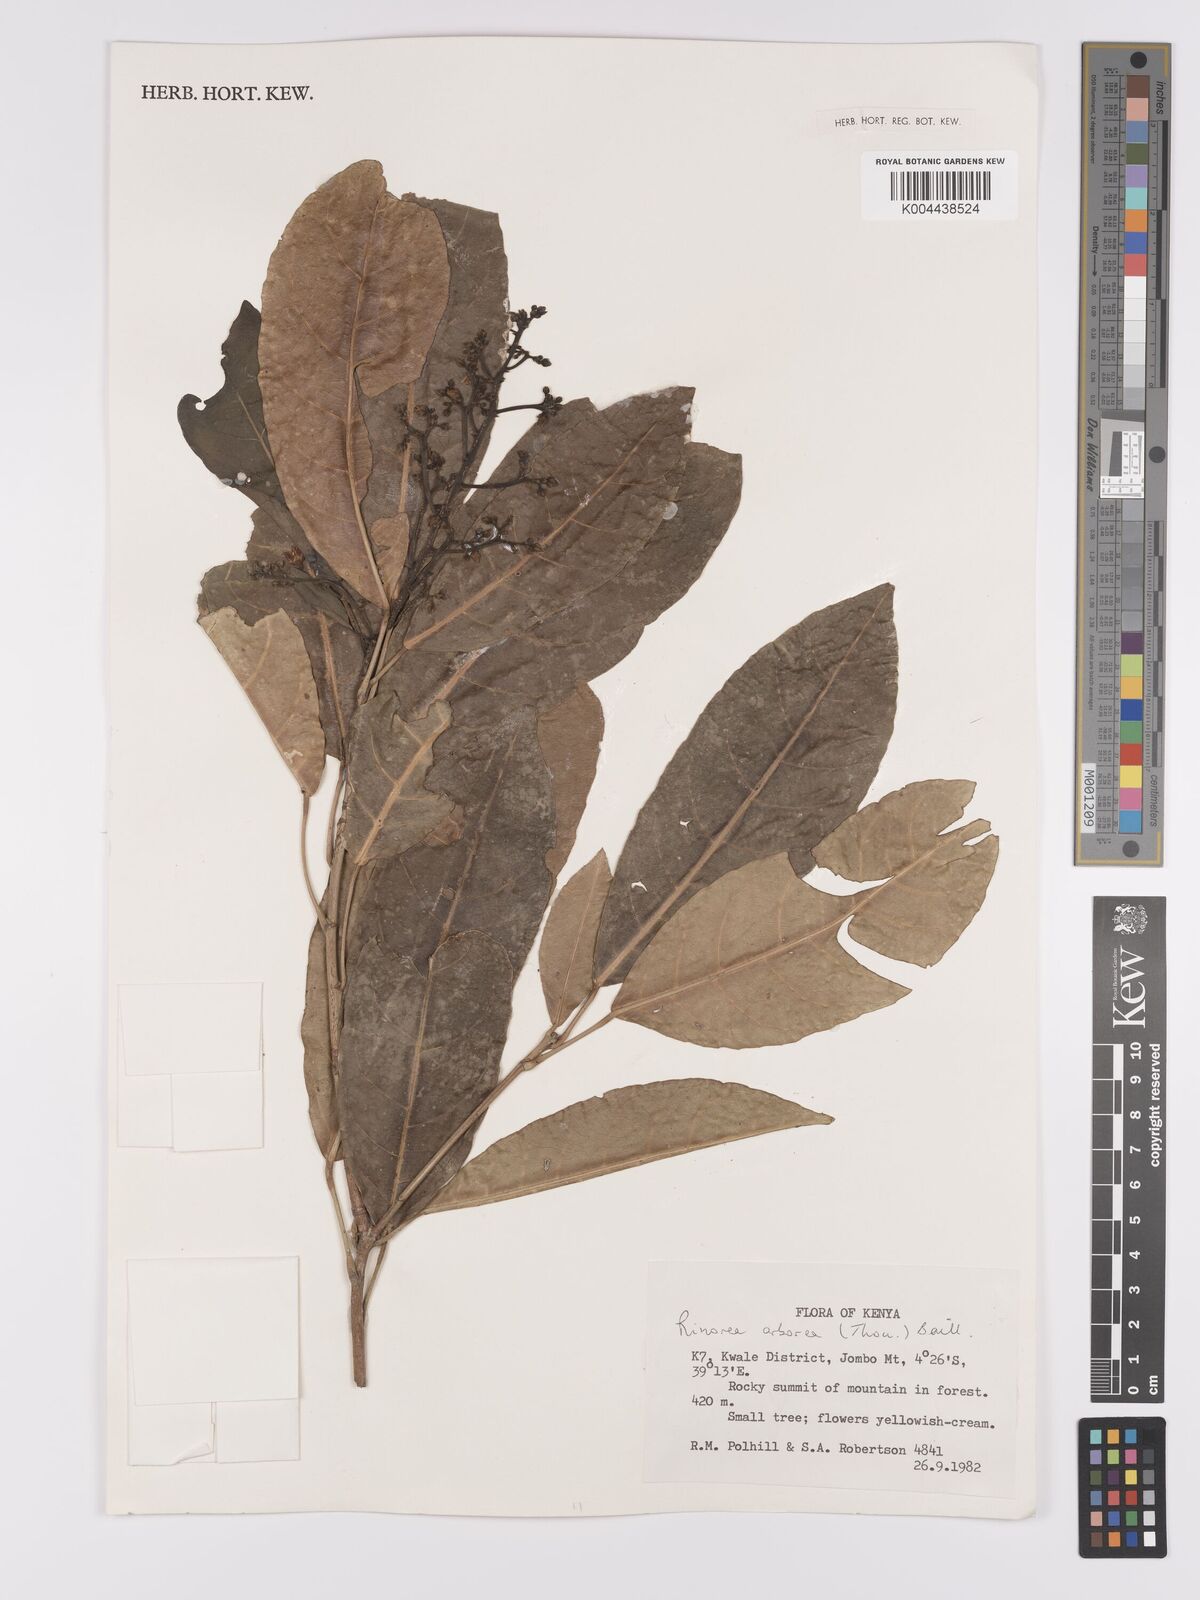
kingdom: Plantae
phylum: Tracheophyta
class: Magnoliopsida
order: Malpighiales
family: Violaceae
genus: Rinorea
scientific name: Rinorea arborea
